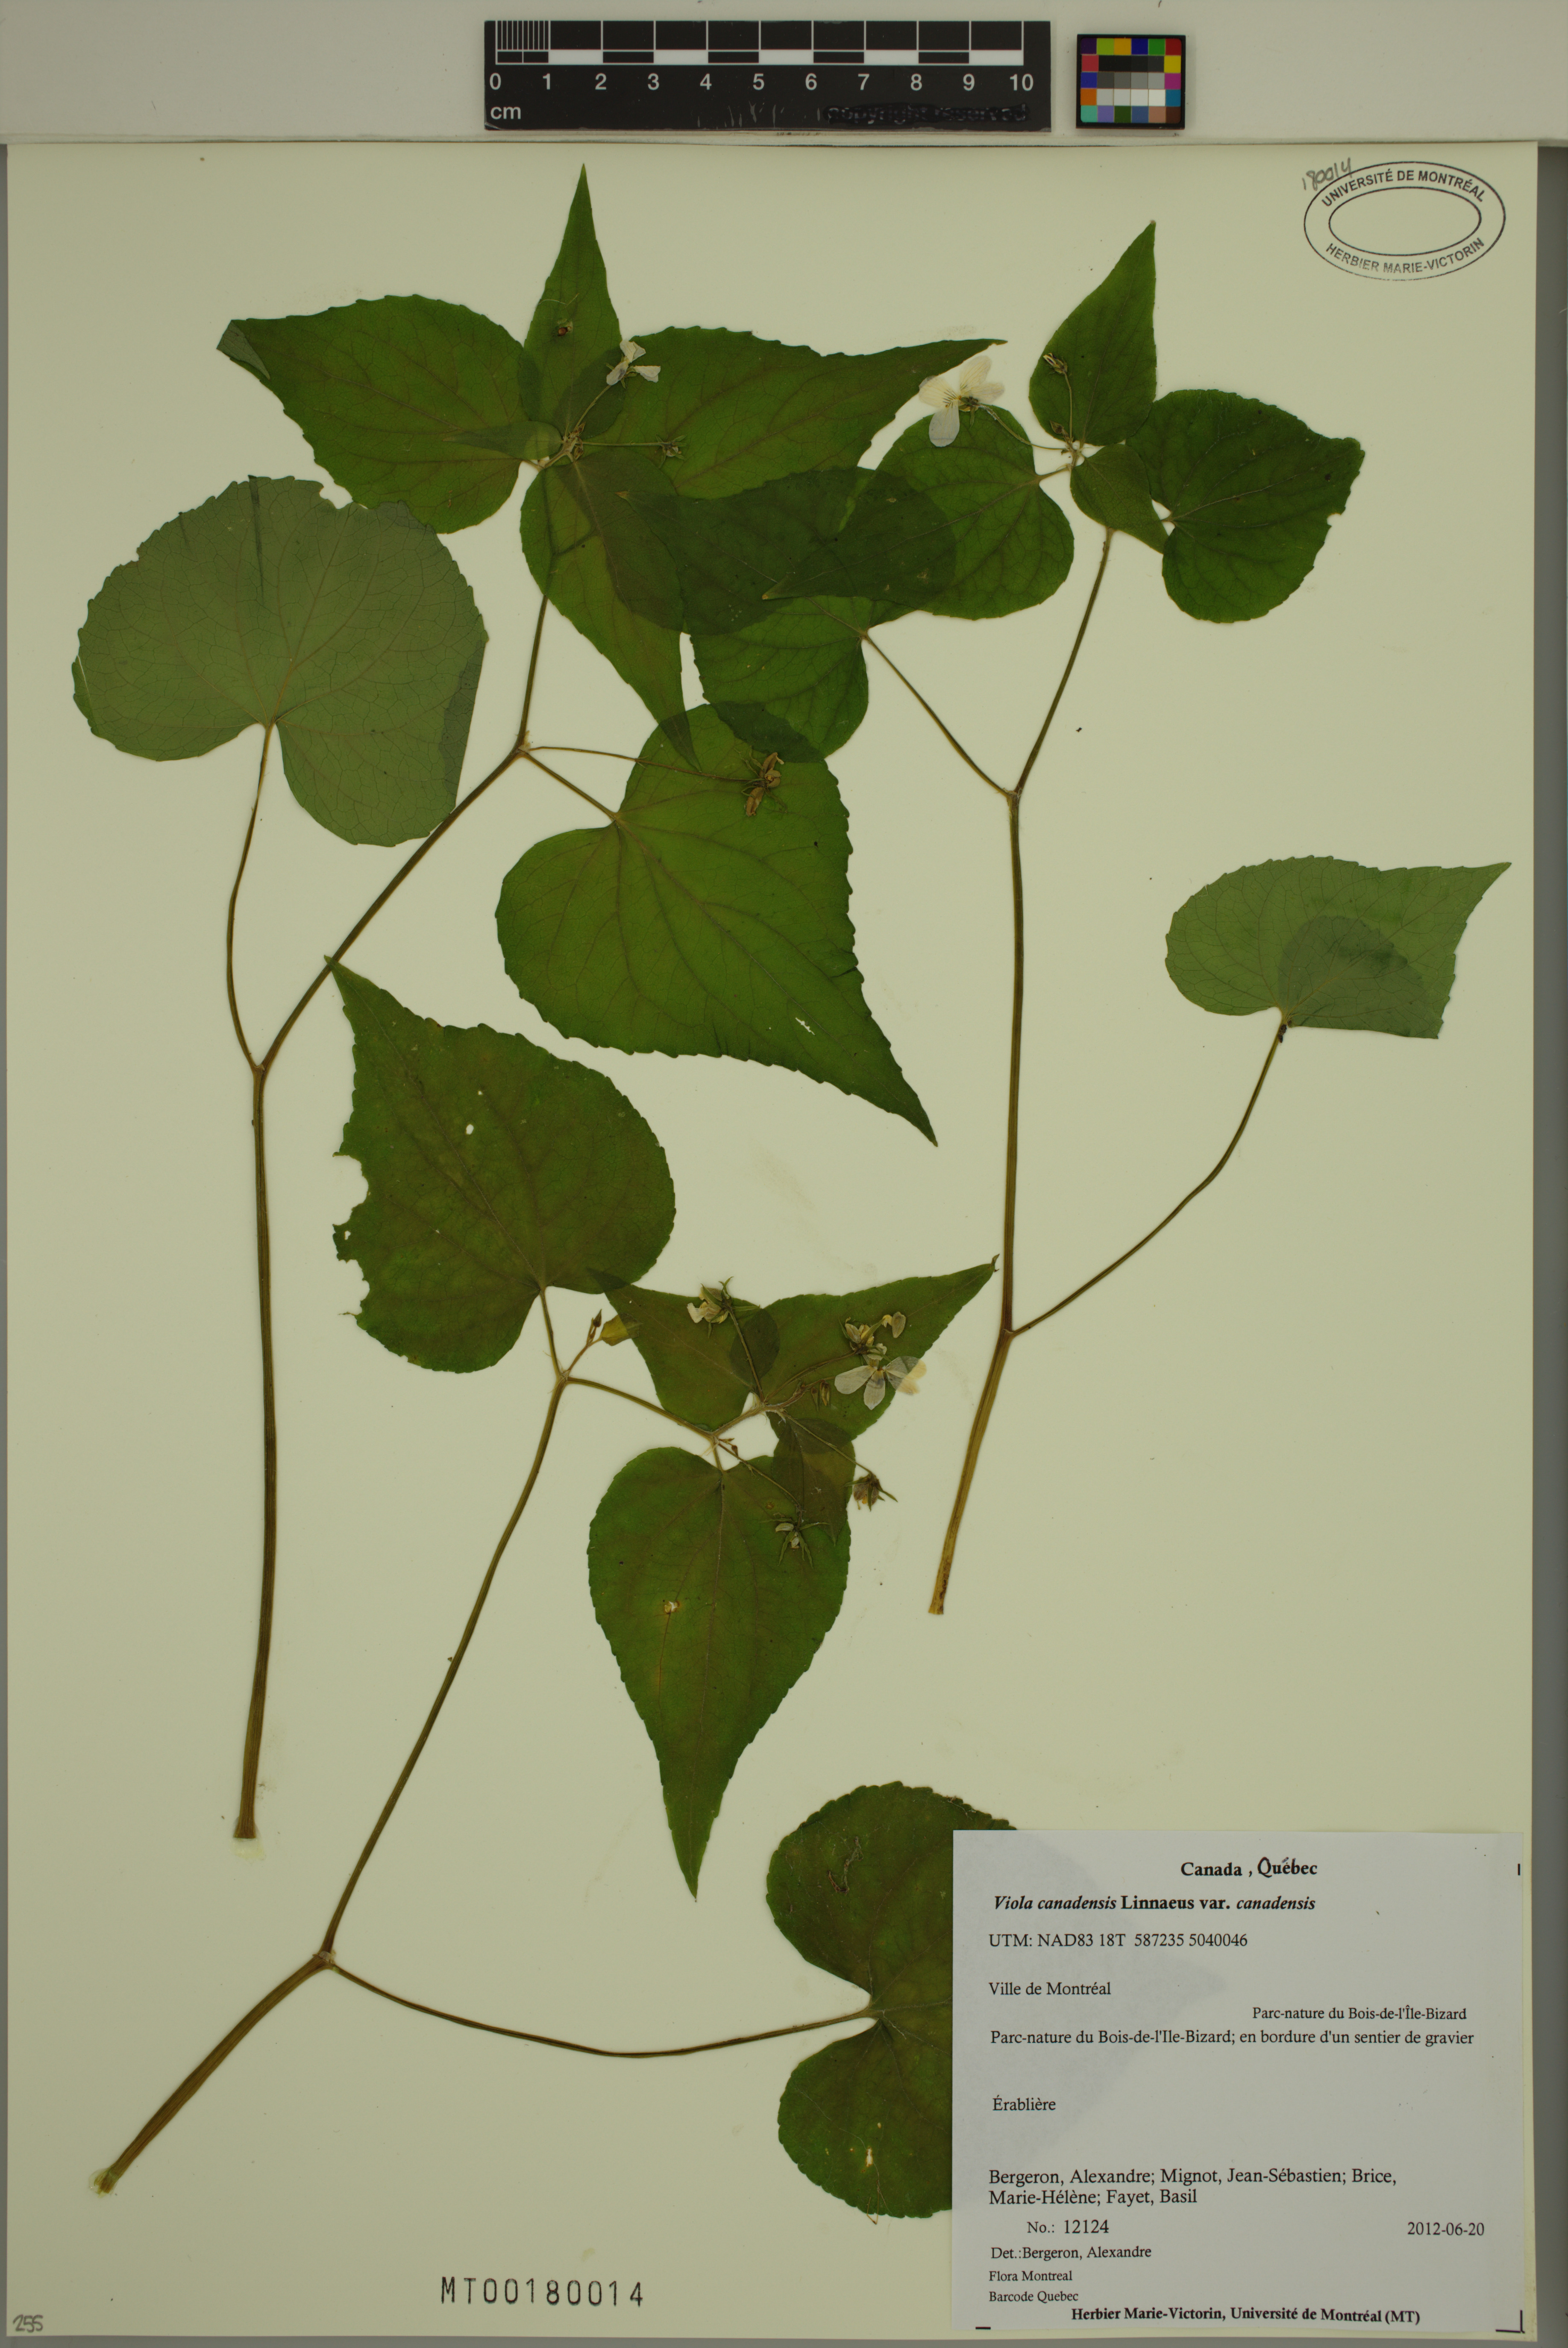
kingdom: Plantae
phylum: Tracheophyta
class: Magnoliopsida
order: Malpighiales
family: Violaceae
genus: Viola
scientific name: Viola canadensis
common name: Canada violet
